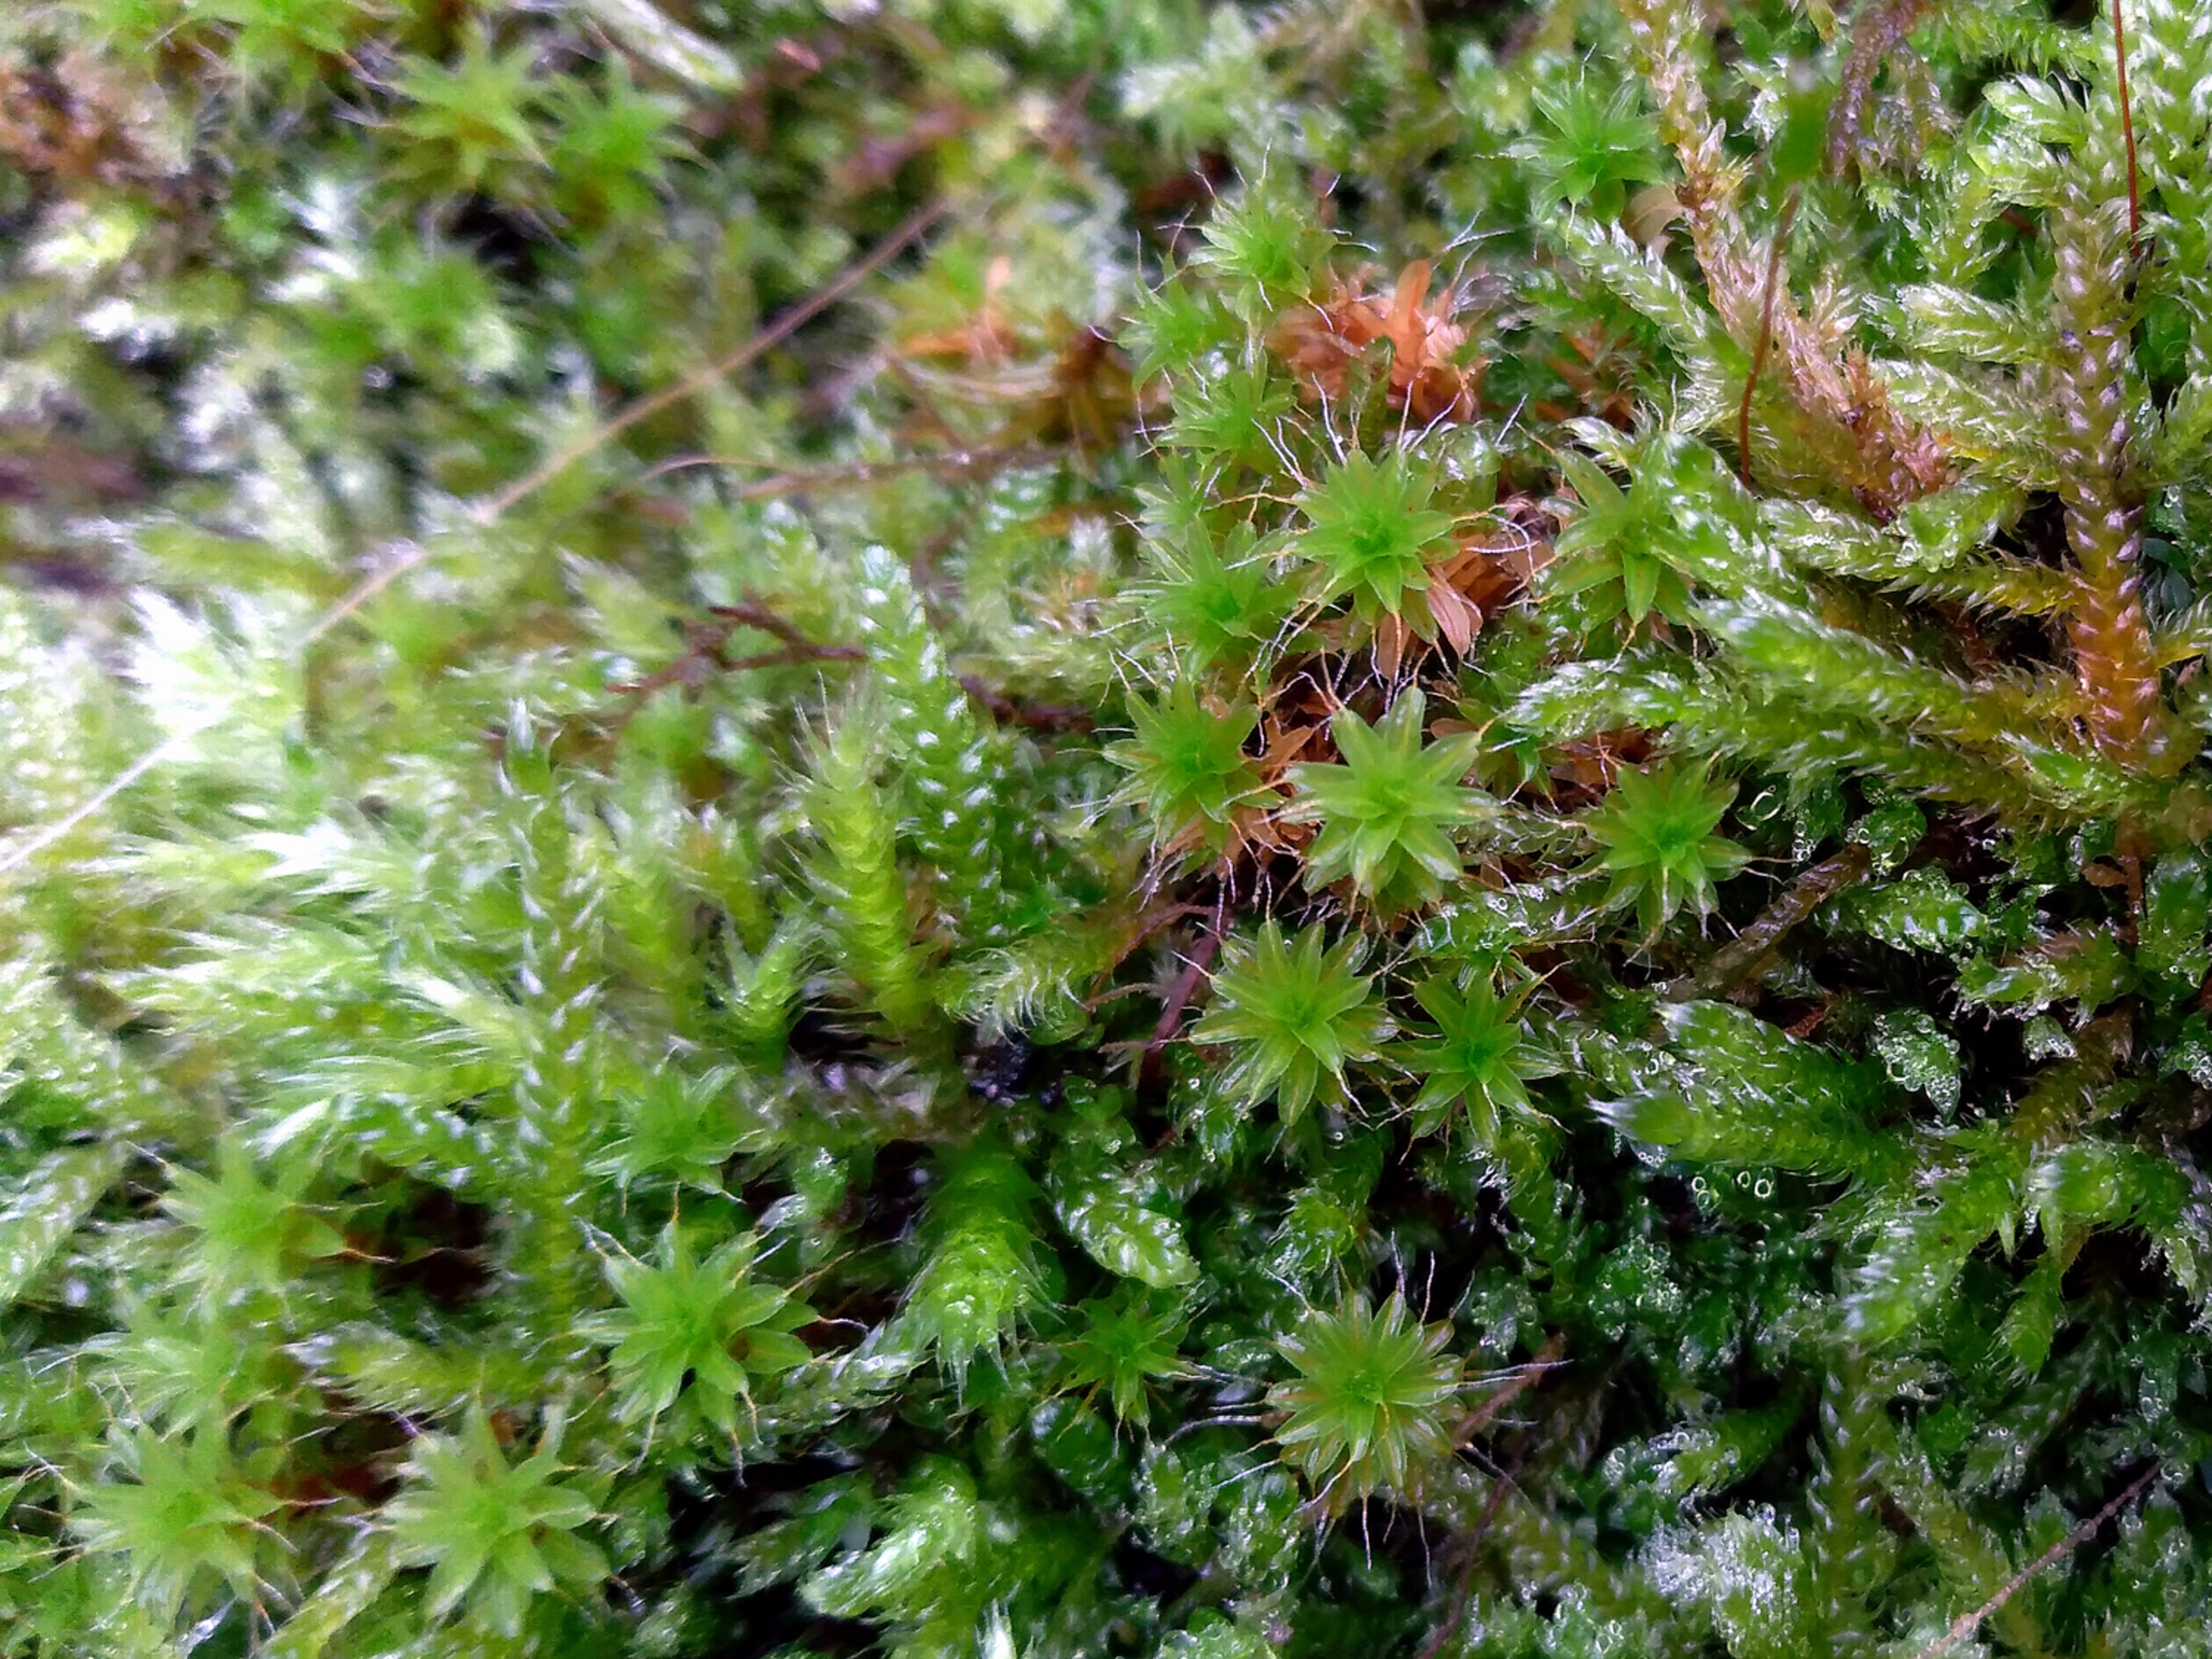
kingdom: Plantae
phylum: Bryophyta
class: Bryopsida
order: Pottiales
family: Pottiaceae
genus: Syntrichia
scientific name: Syntrichia ruralis
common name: Tag-hårstjerne
